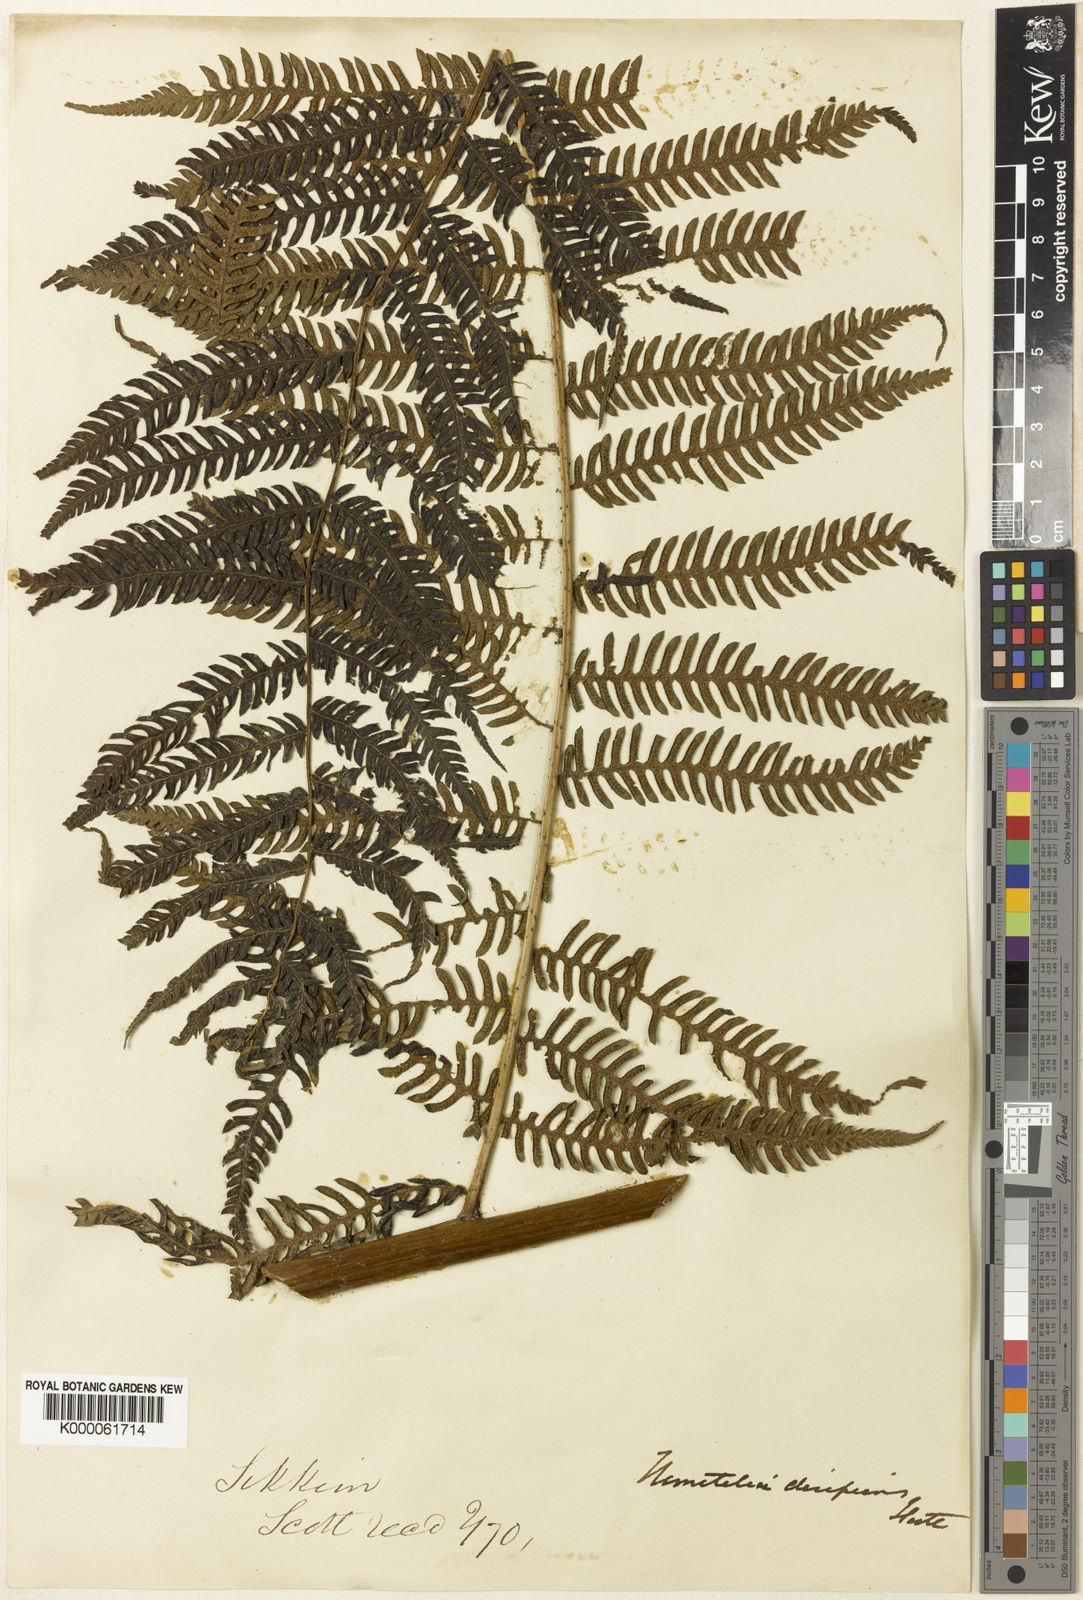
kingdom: Plantae
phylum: Tracheophyta
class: Polypodiopsida
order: Cyatheales
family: Cyatheaceae
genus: Cyathea
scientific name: Cyathea
